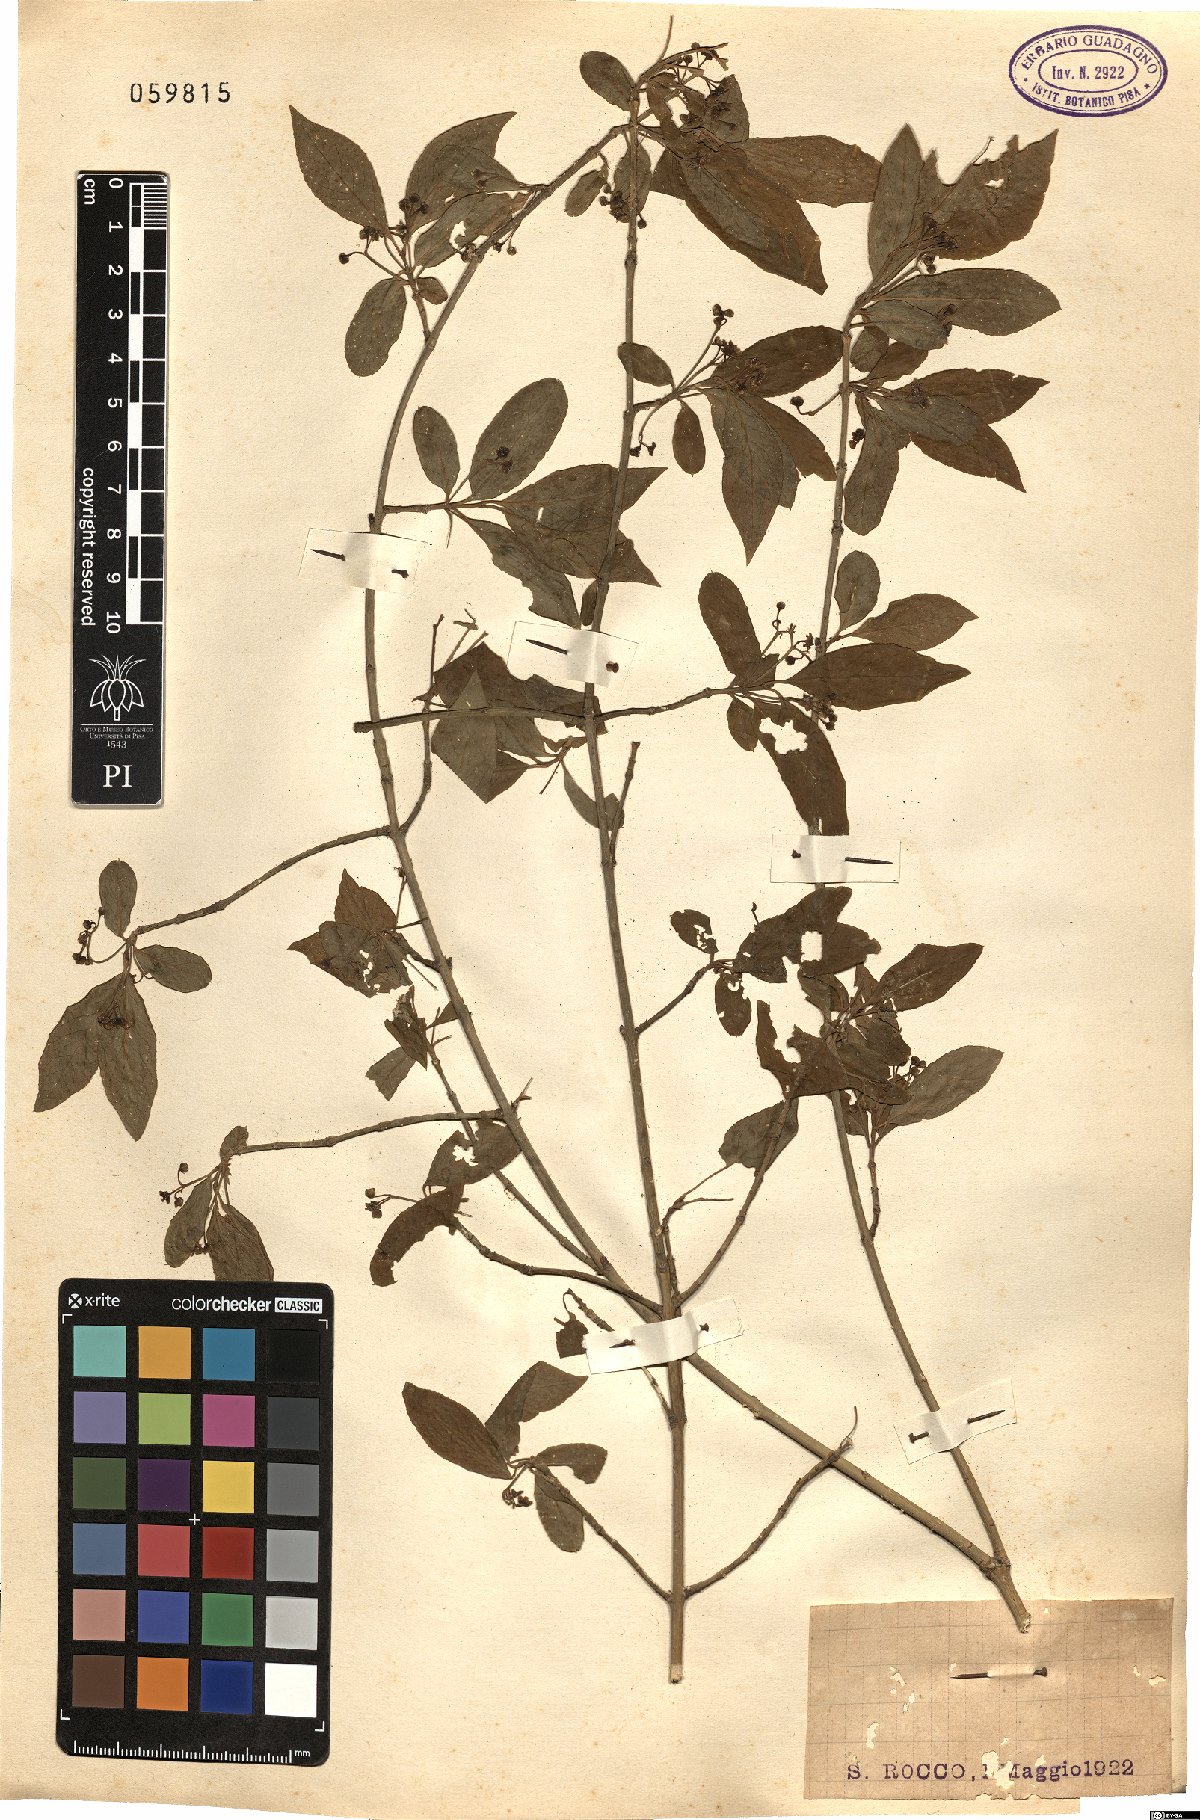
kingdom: Plantae
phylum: Tracheophyta
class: Magnoliopsida
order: Celastrales
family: Celastraceae
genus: Euonymus
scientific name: Euonymus europaeus
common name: Spindle
